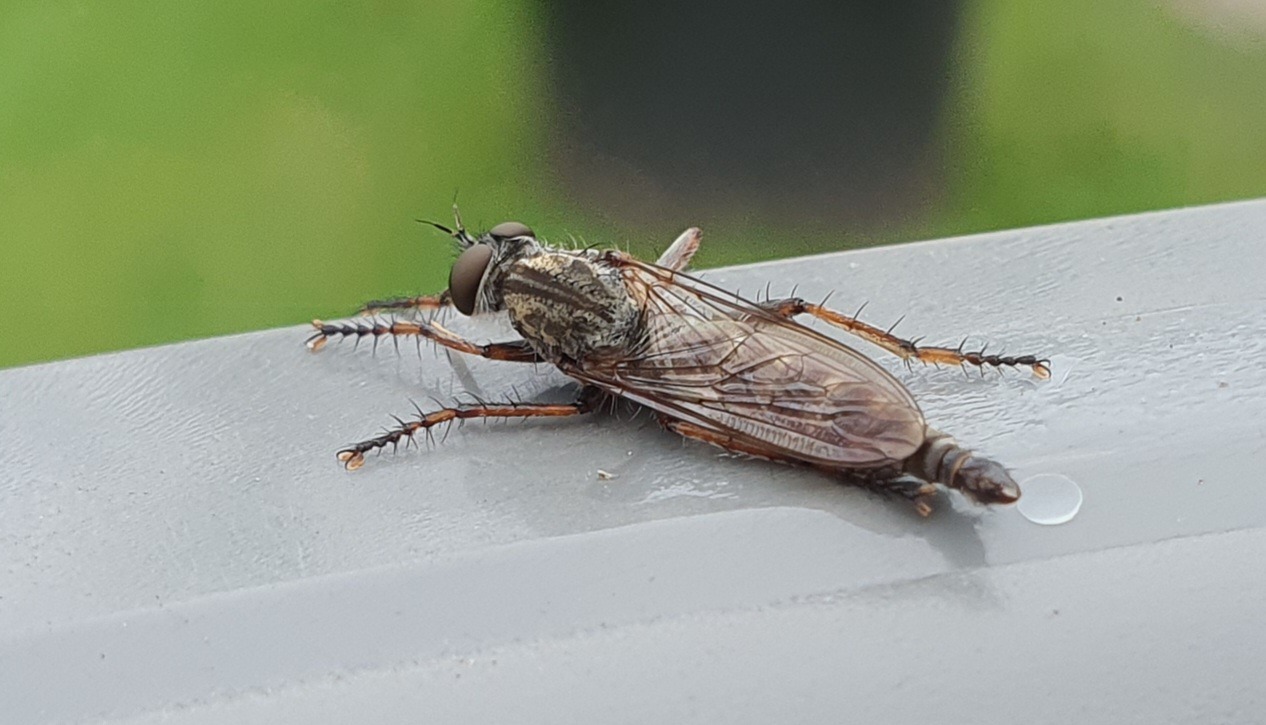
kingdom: Animalia
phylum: Arthropoda
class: Insecta
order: Diptera
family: Asilidae
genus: Machimus
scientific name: Machimus atricapillus
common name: Sort hårrovflue
